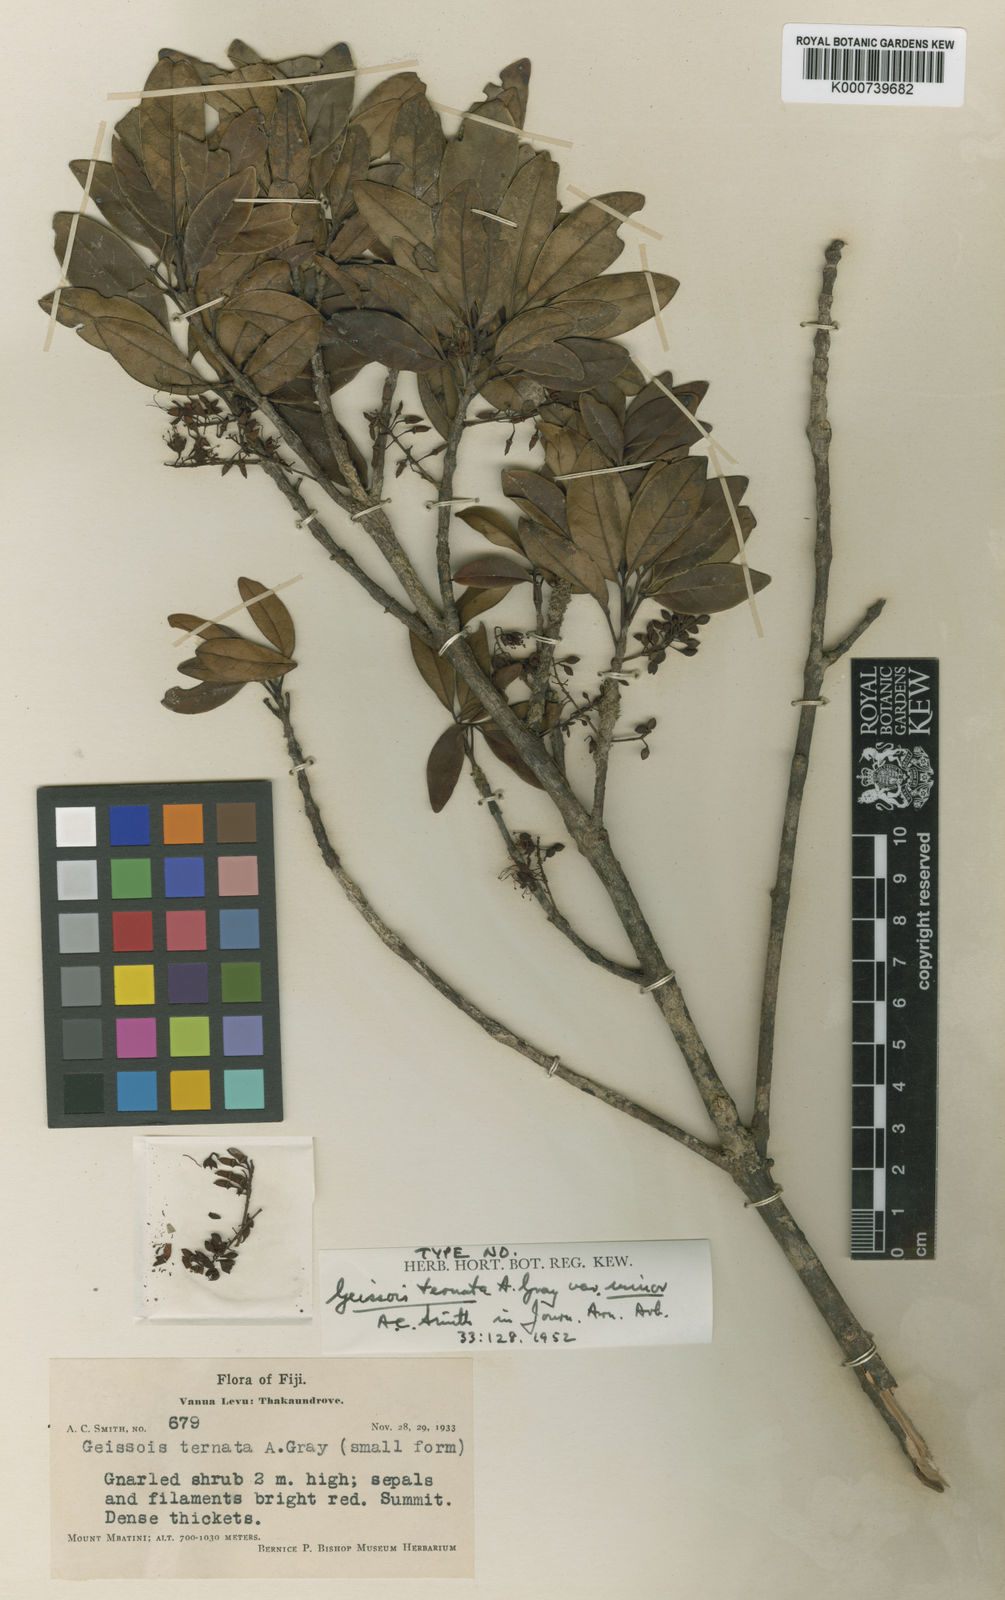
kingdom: Plantae
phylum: Tracheophyta
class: Magnoliopsida
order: Oxalidales
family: Cunoniaceae
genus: Geissois
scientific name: Geissois ternata
